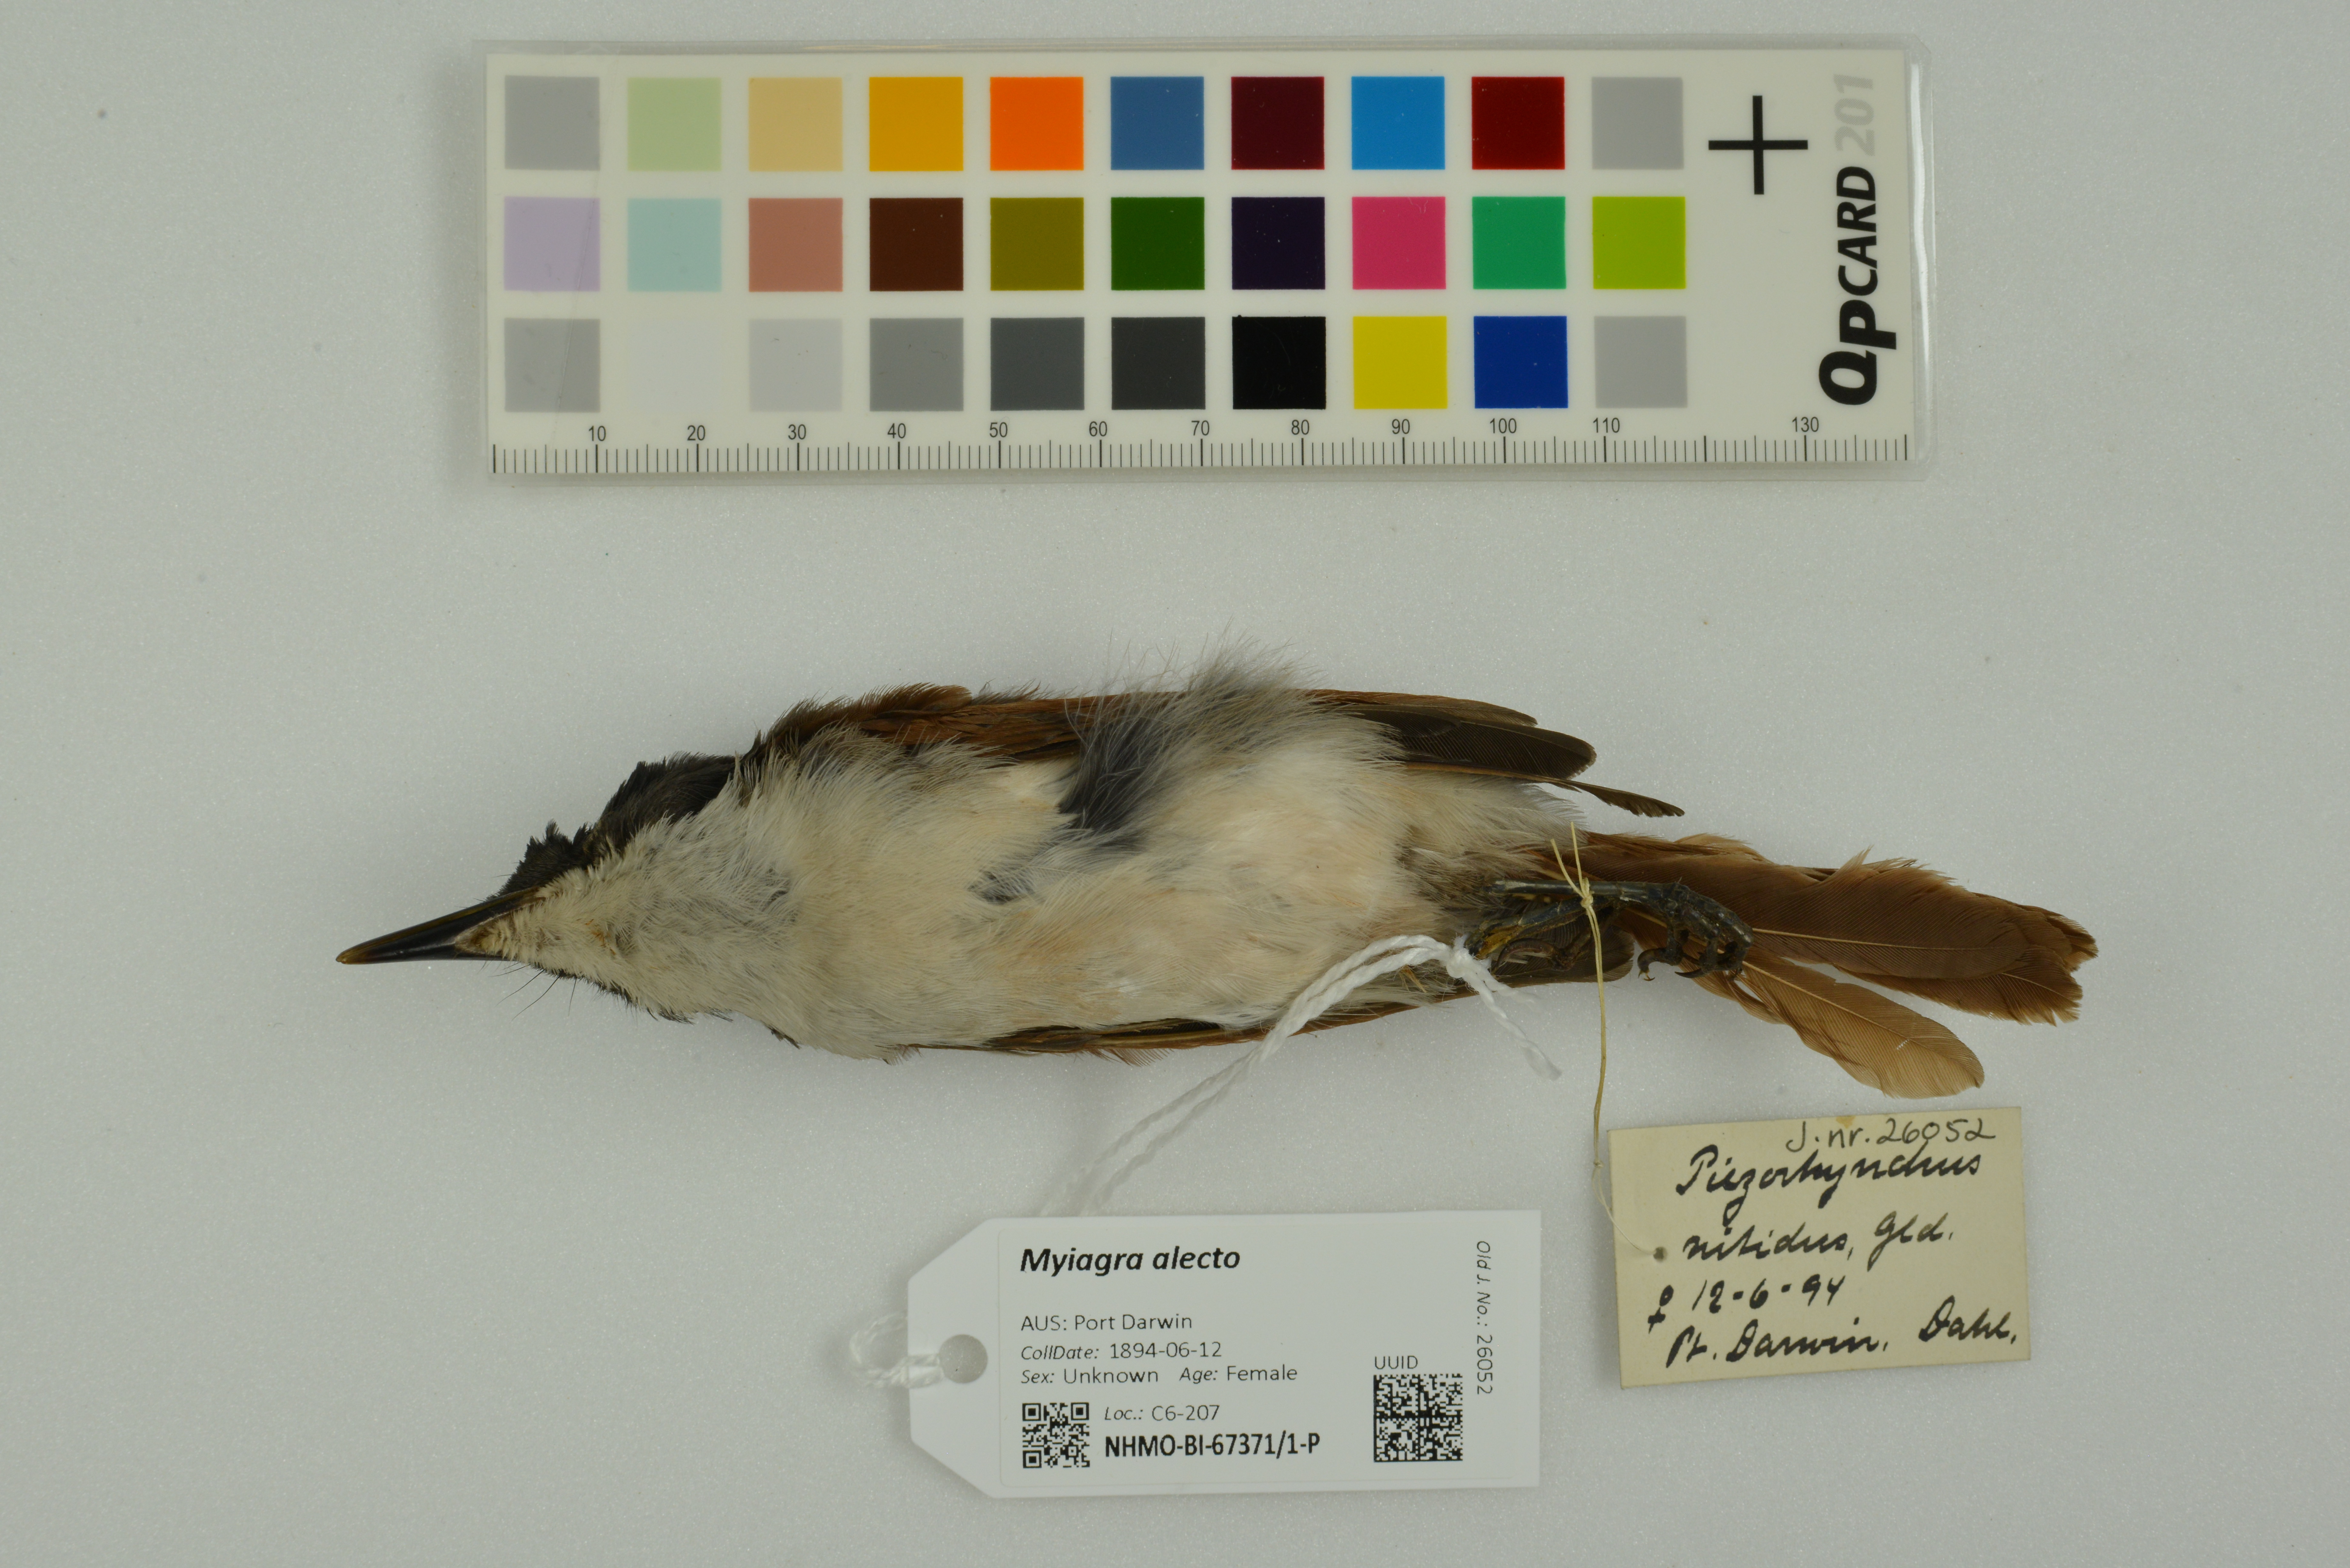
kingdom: Animalia
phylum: Chordata
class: Aves
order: Passeriformes
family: Monarchidae
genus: Myiagra
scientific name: Myiagra alecto
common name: Shining flycatcher
